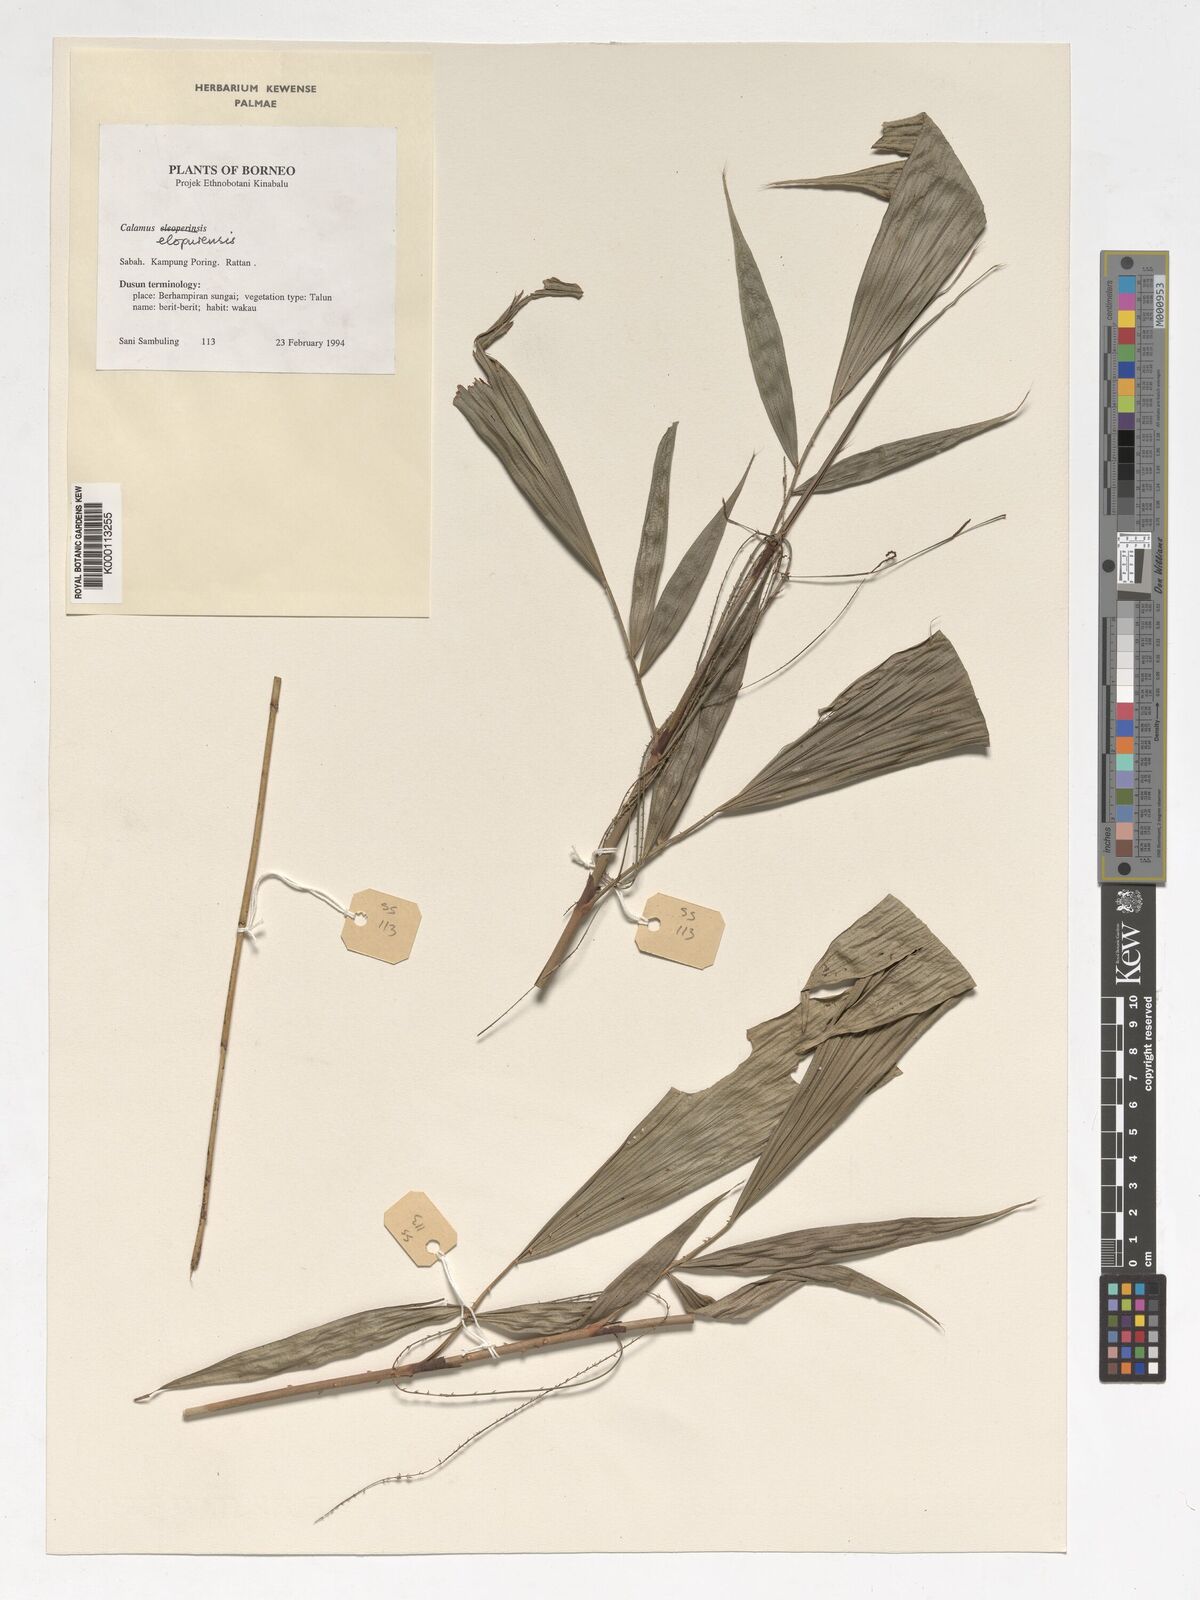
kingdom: Plantae
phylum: Tracheophyta
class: Liliopsida
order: Arecales
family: Arecaceae
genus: Calamus
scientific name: Calamus javensis
